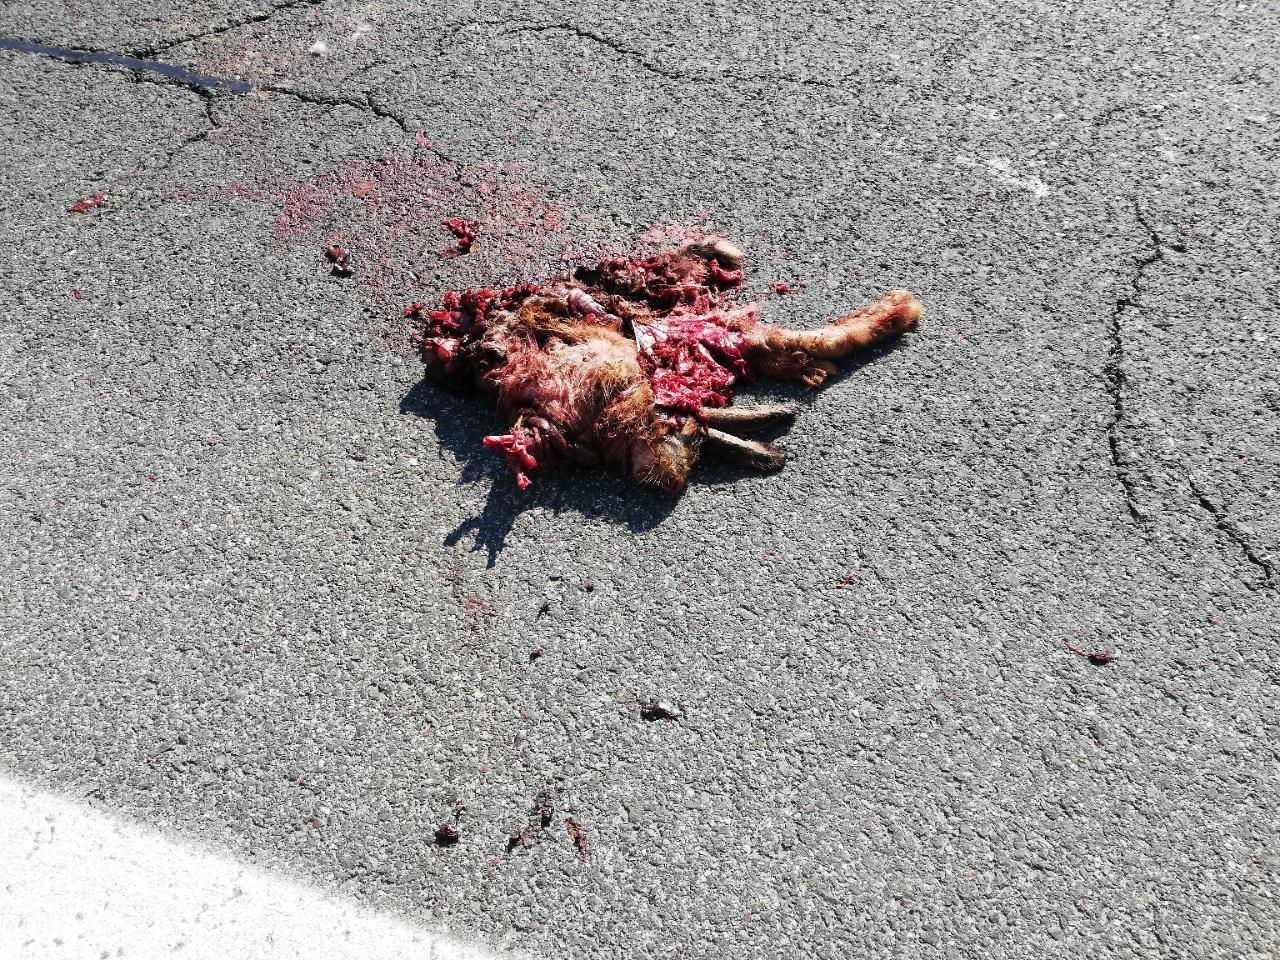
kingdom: Animalia
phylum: Chordata
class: Mammalia
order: Lagomorpha
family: Leporidae
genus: Lepus
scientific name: Lepus europaeus
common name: European hare
